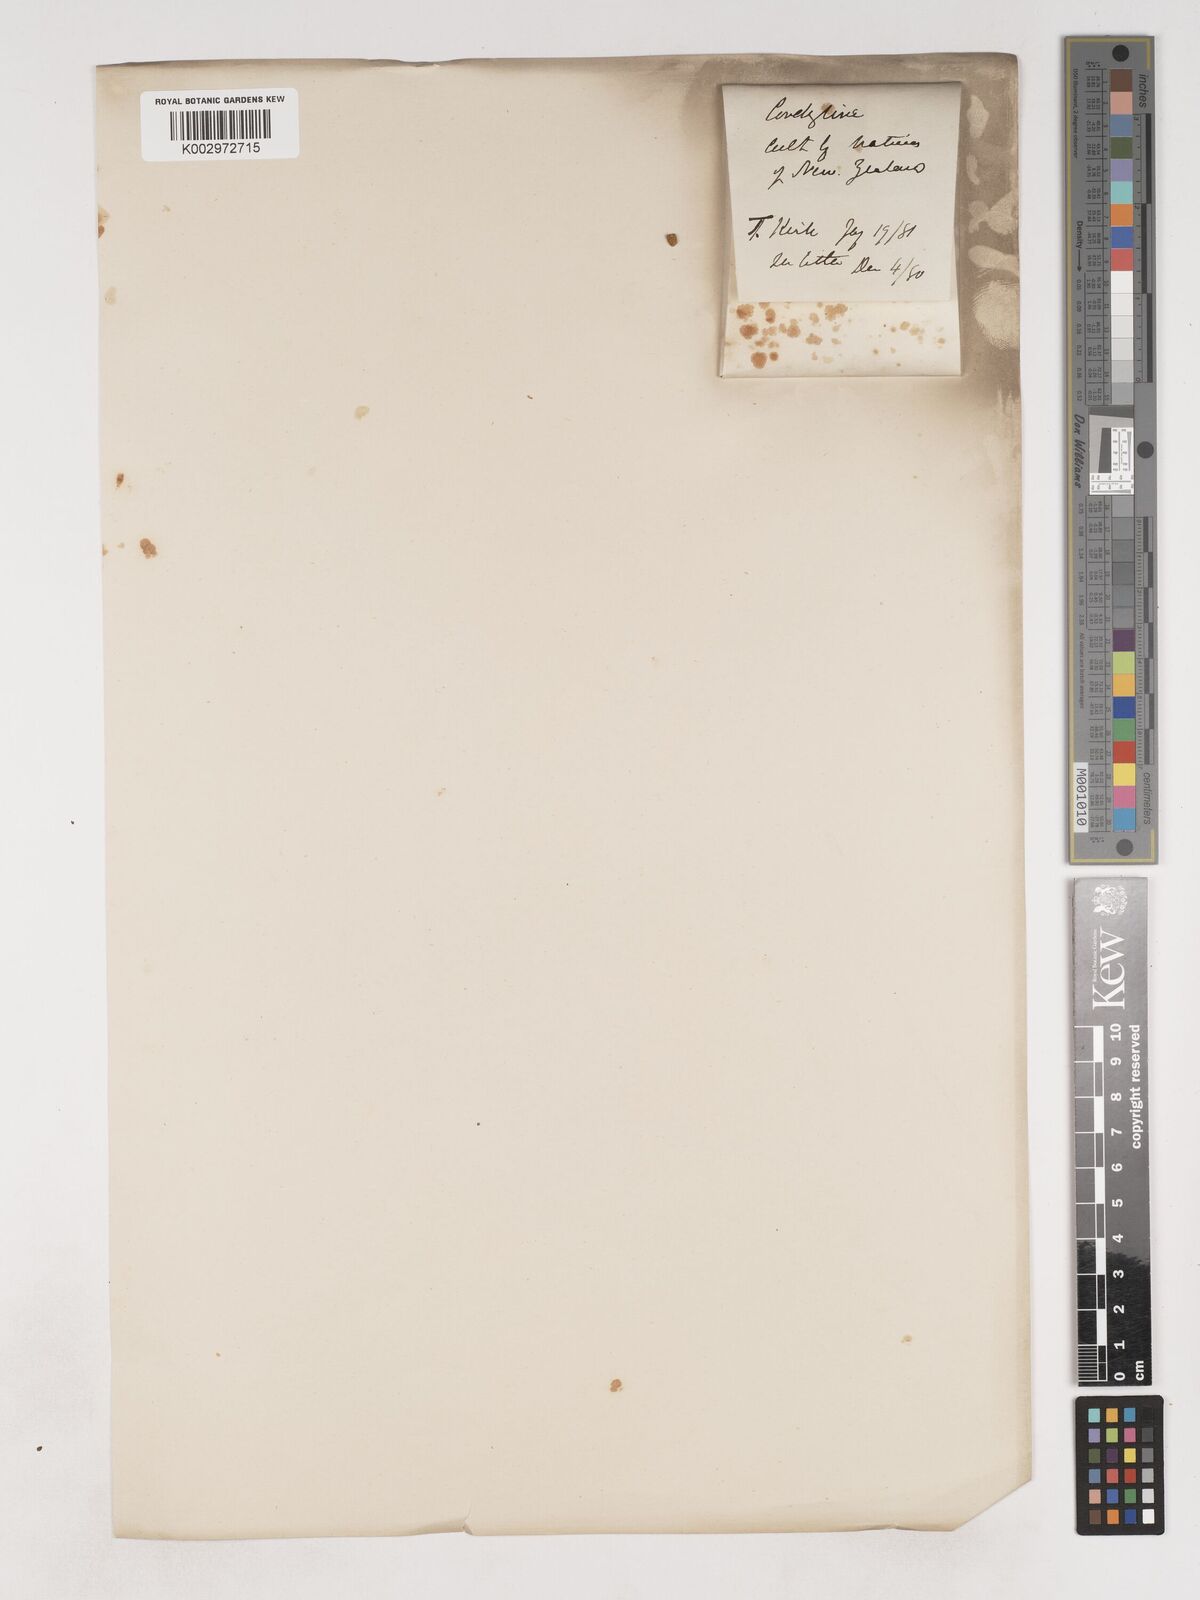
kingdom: Plantae
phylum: Tracheophyta
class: Liliopsida
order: Asparagales
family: Asparagaceae
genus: Cordyline
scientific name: Cordyline
